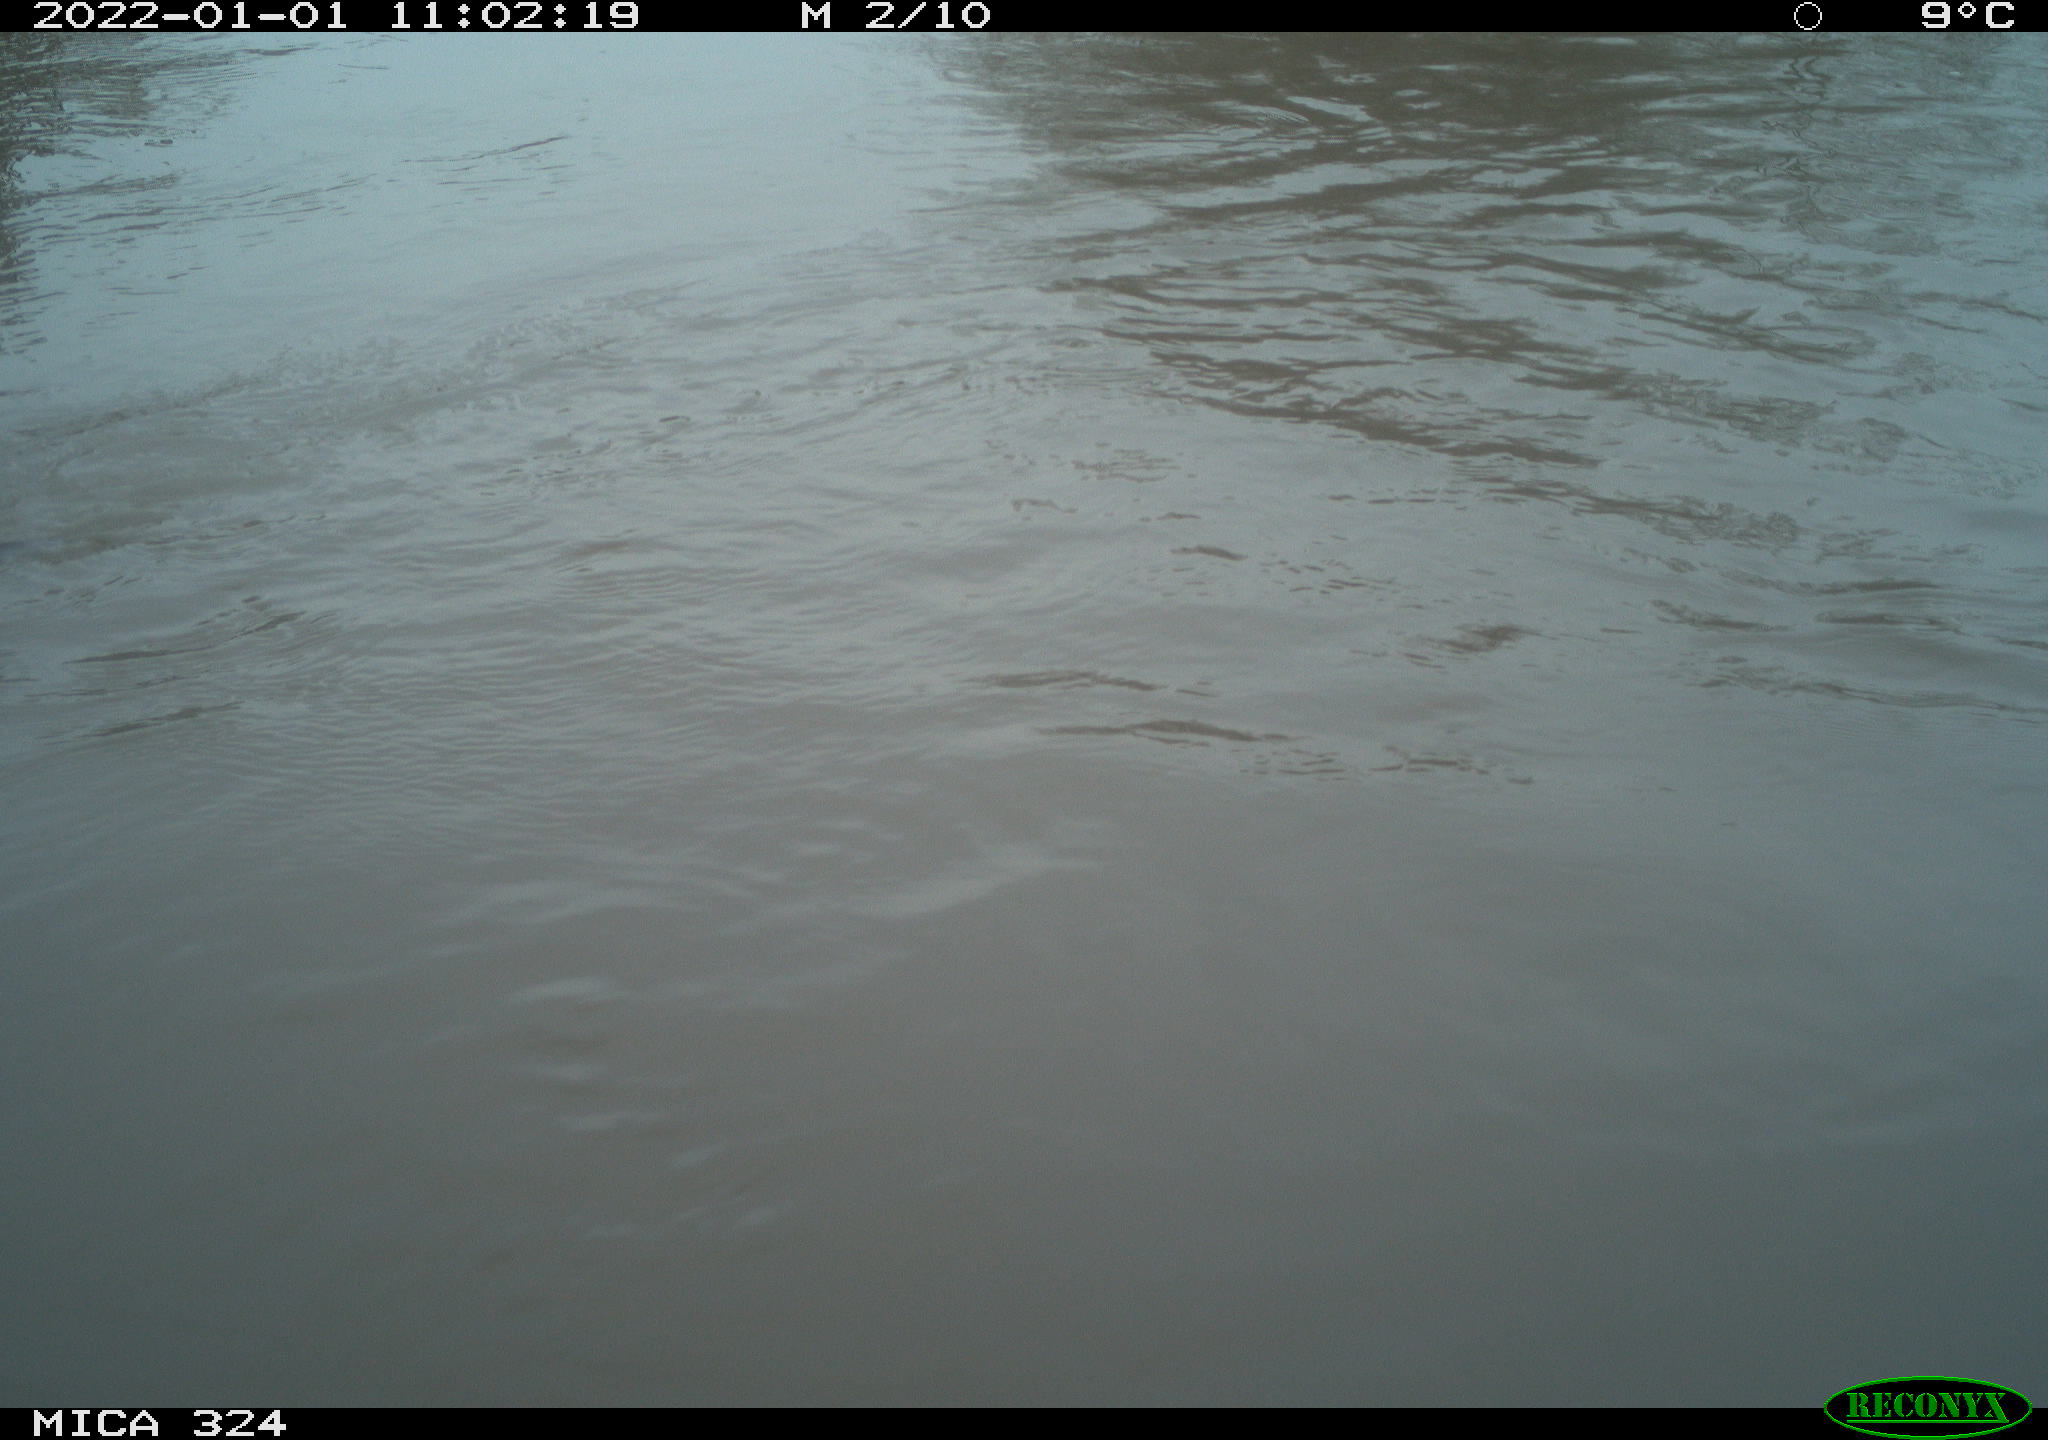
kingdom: Animalia
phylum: Chordata
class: Mammalia
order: Rodentia
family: Cricetidae
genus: Ondatra
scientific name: Ondatra zibethicus
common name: Muskrat
